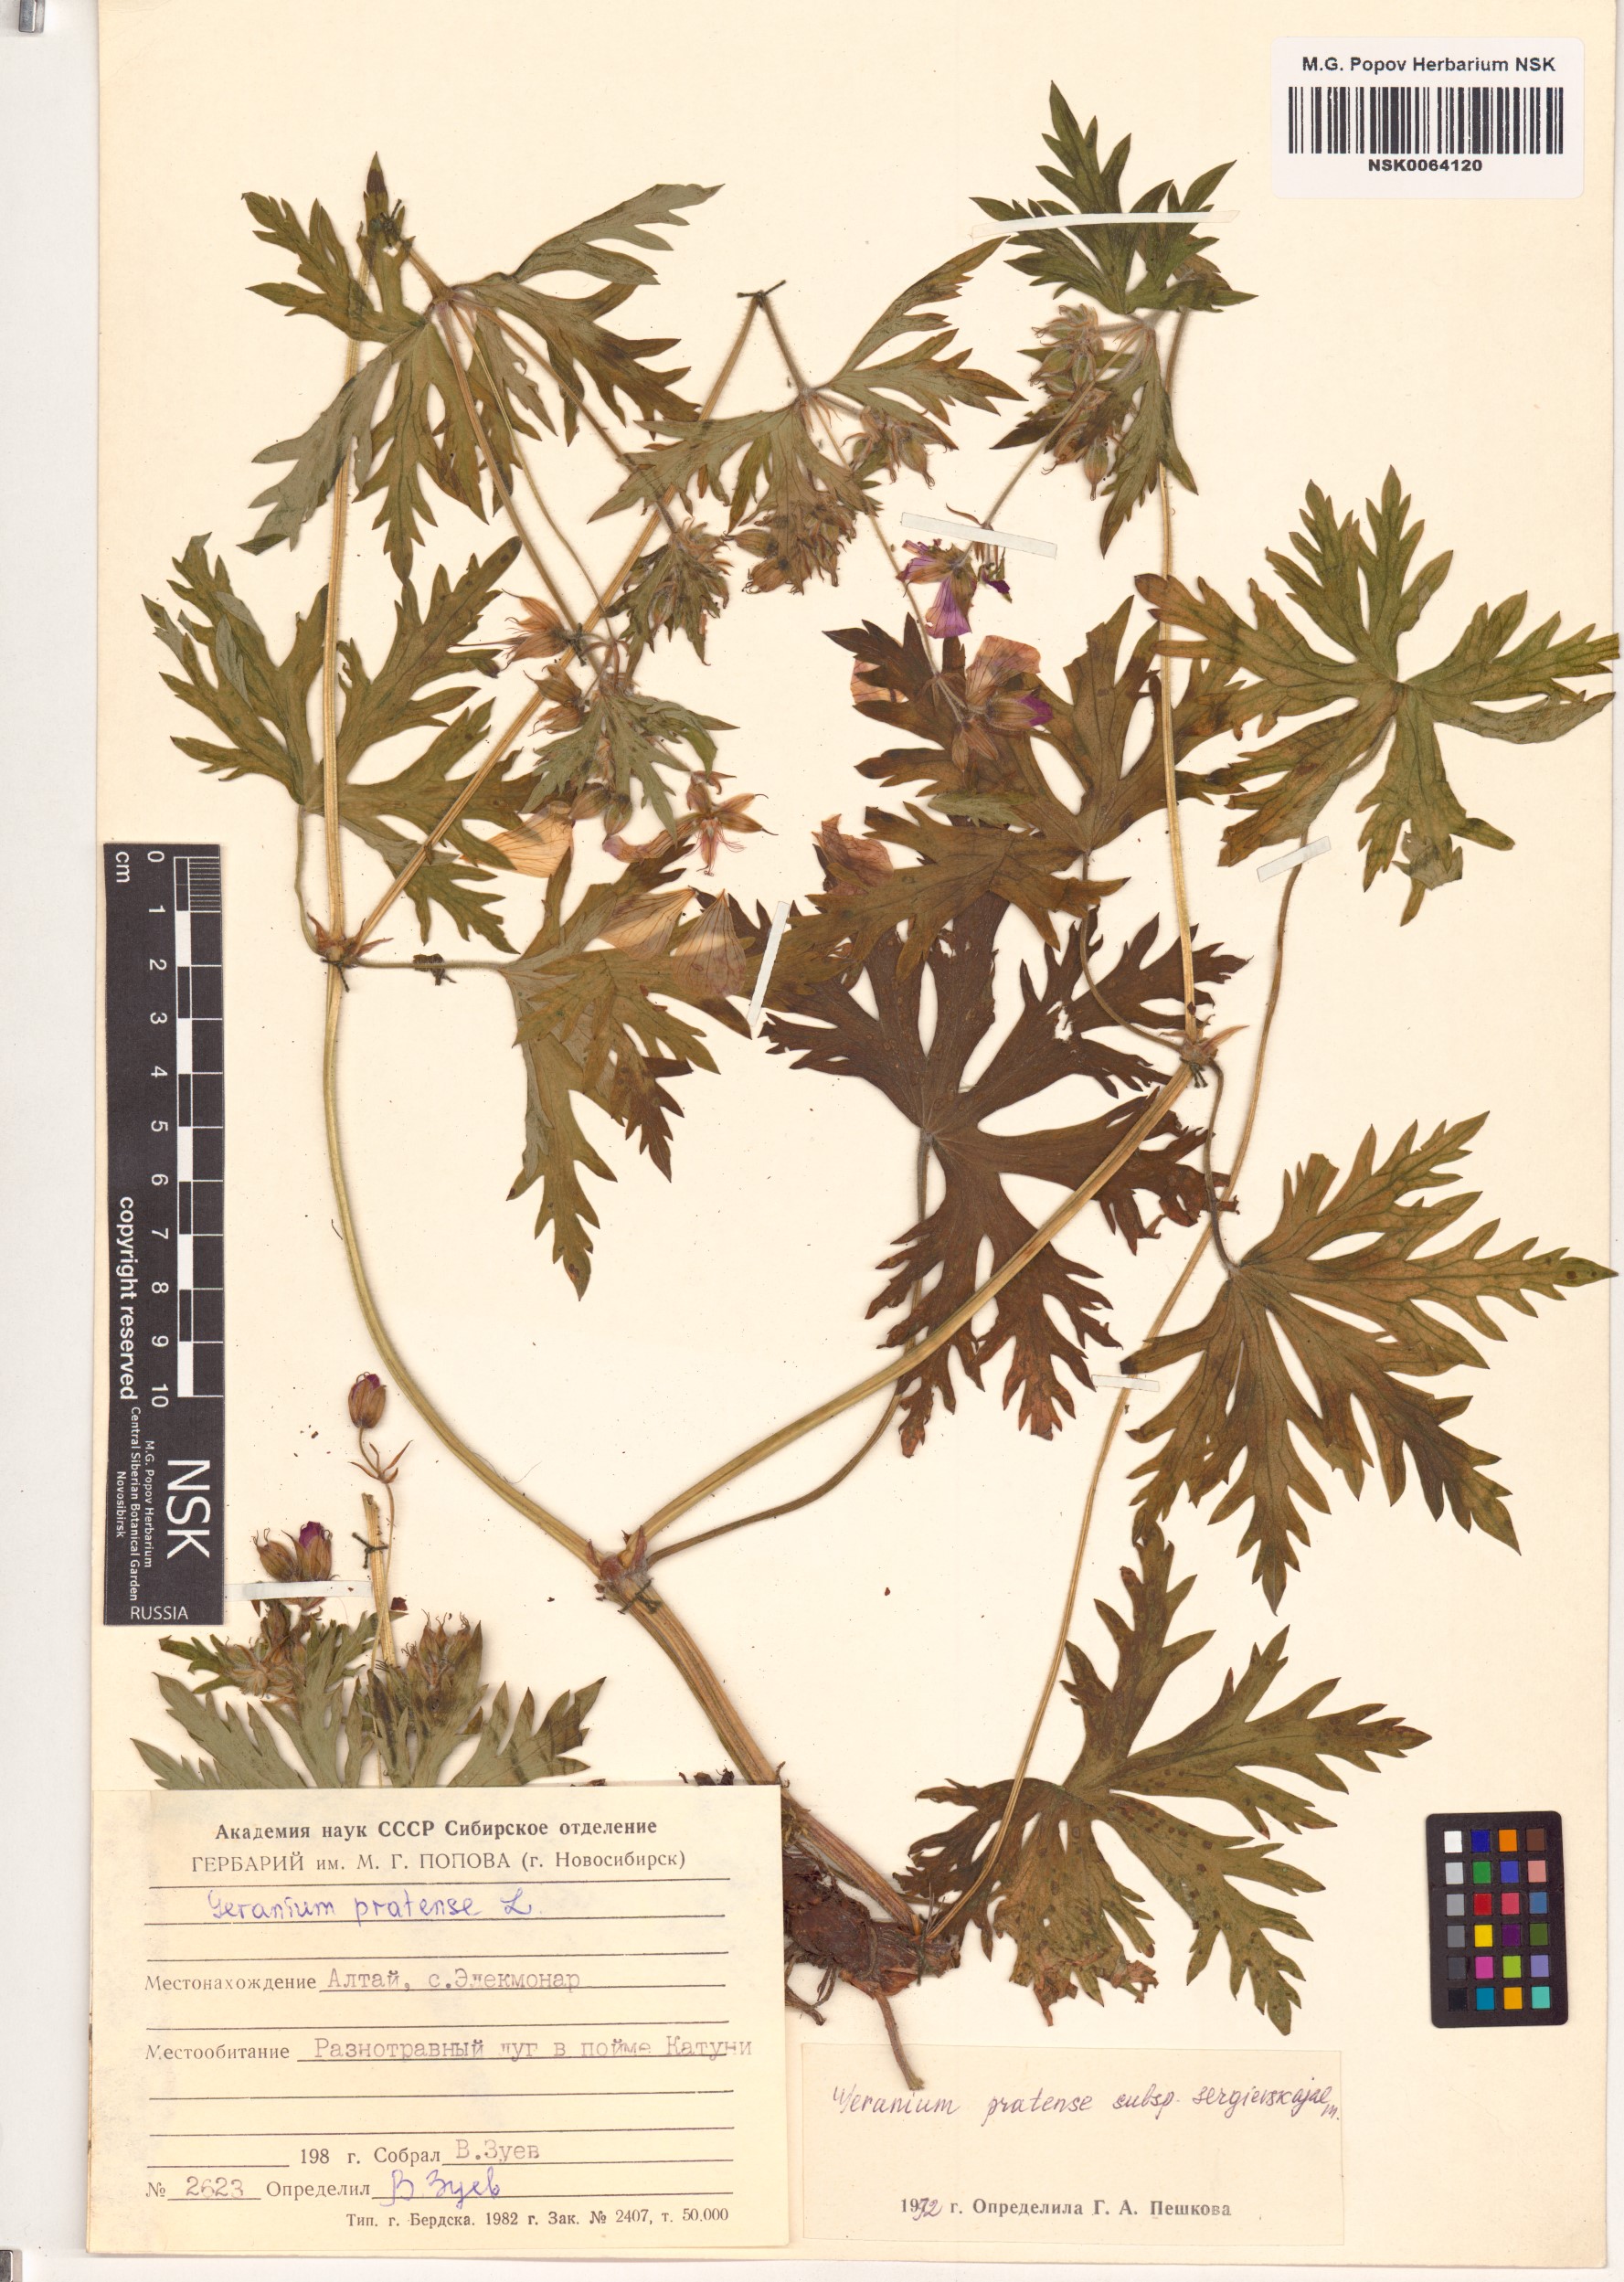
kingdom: Plantae
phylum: Tracheophyta
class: Magnoliopsida
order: Geraniales
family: Geraniaceae
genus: Geranium
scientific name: Geranium pratense
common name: Meadow crane's-bill
